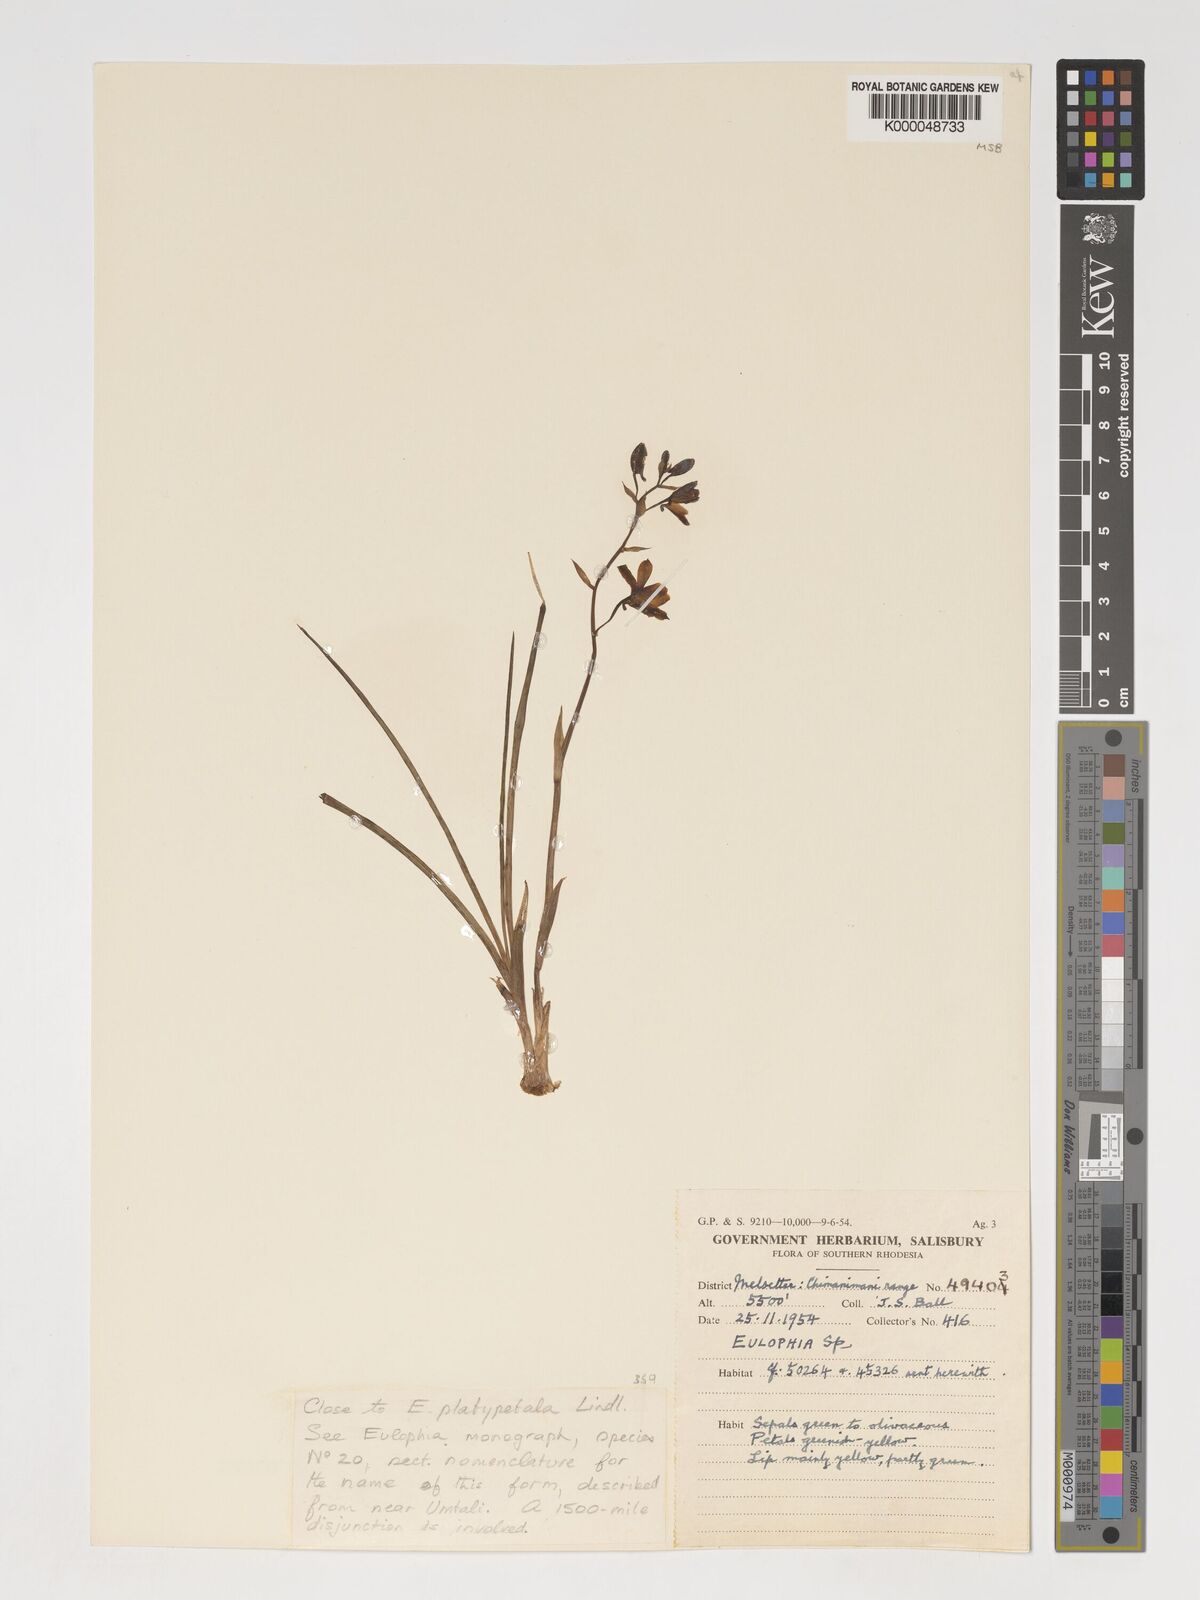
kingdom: Plantae
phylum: Tracheophyta
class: Liliopsida
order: Asparagales
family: Orchidaceae
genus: Eulophia
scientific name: Eulophia monticola
